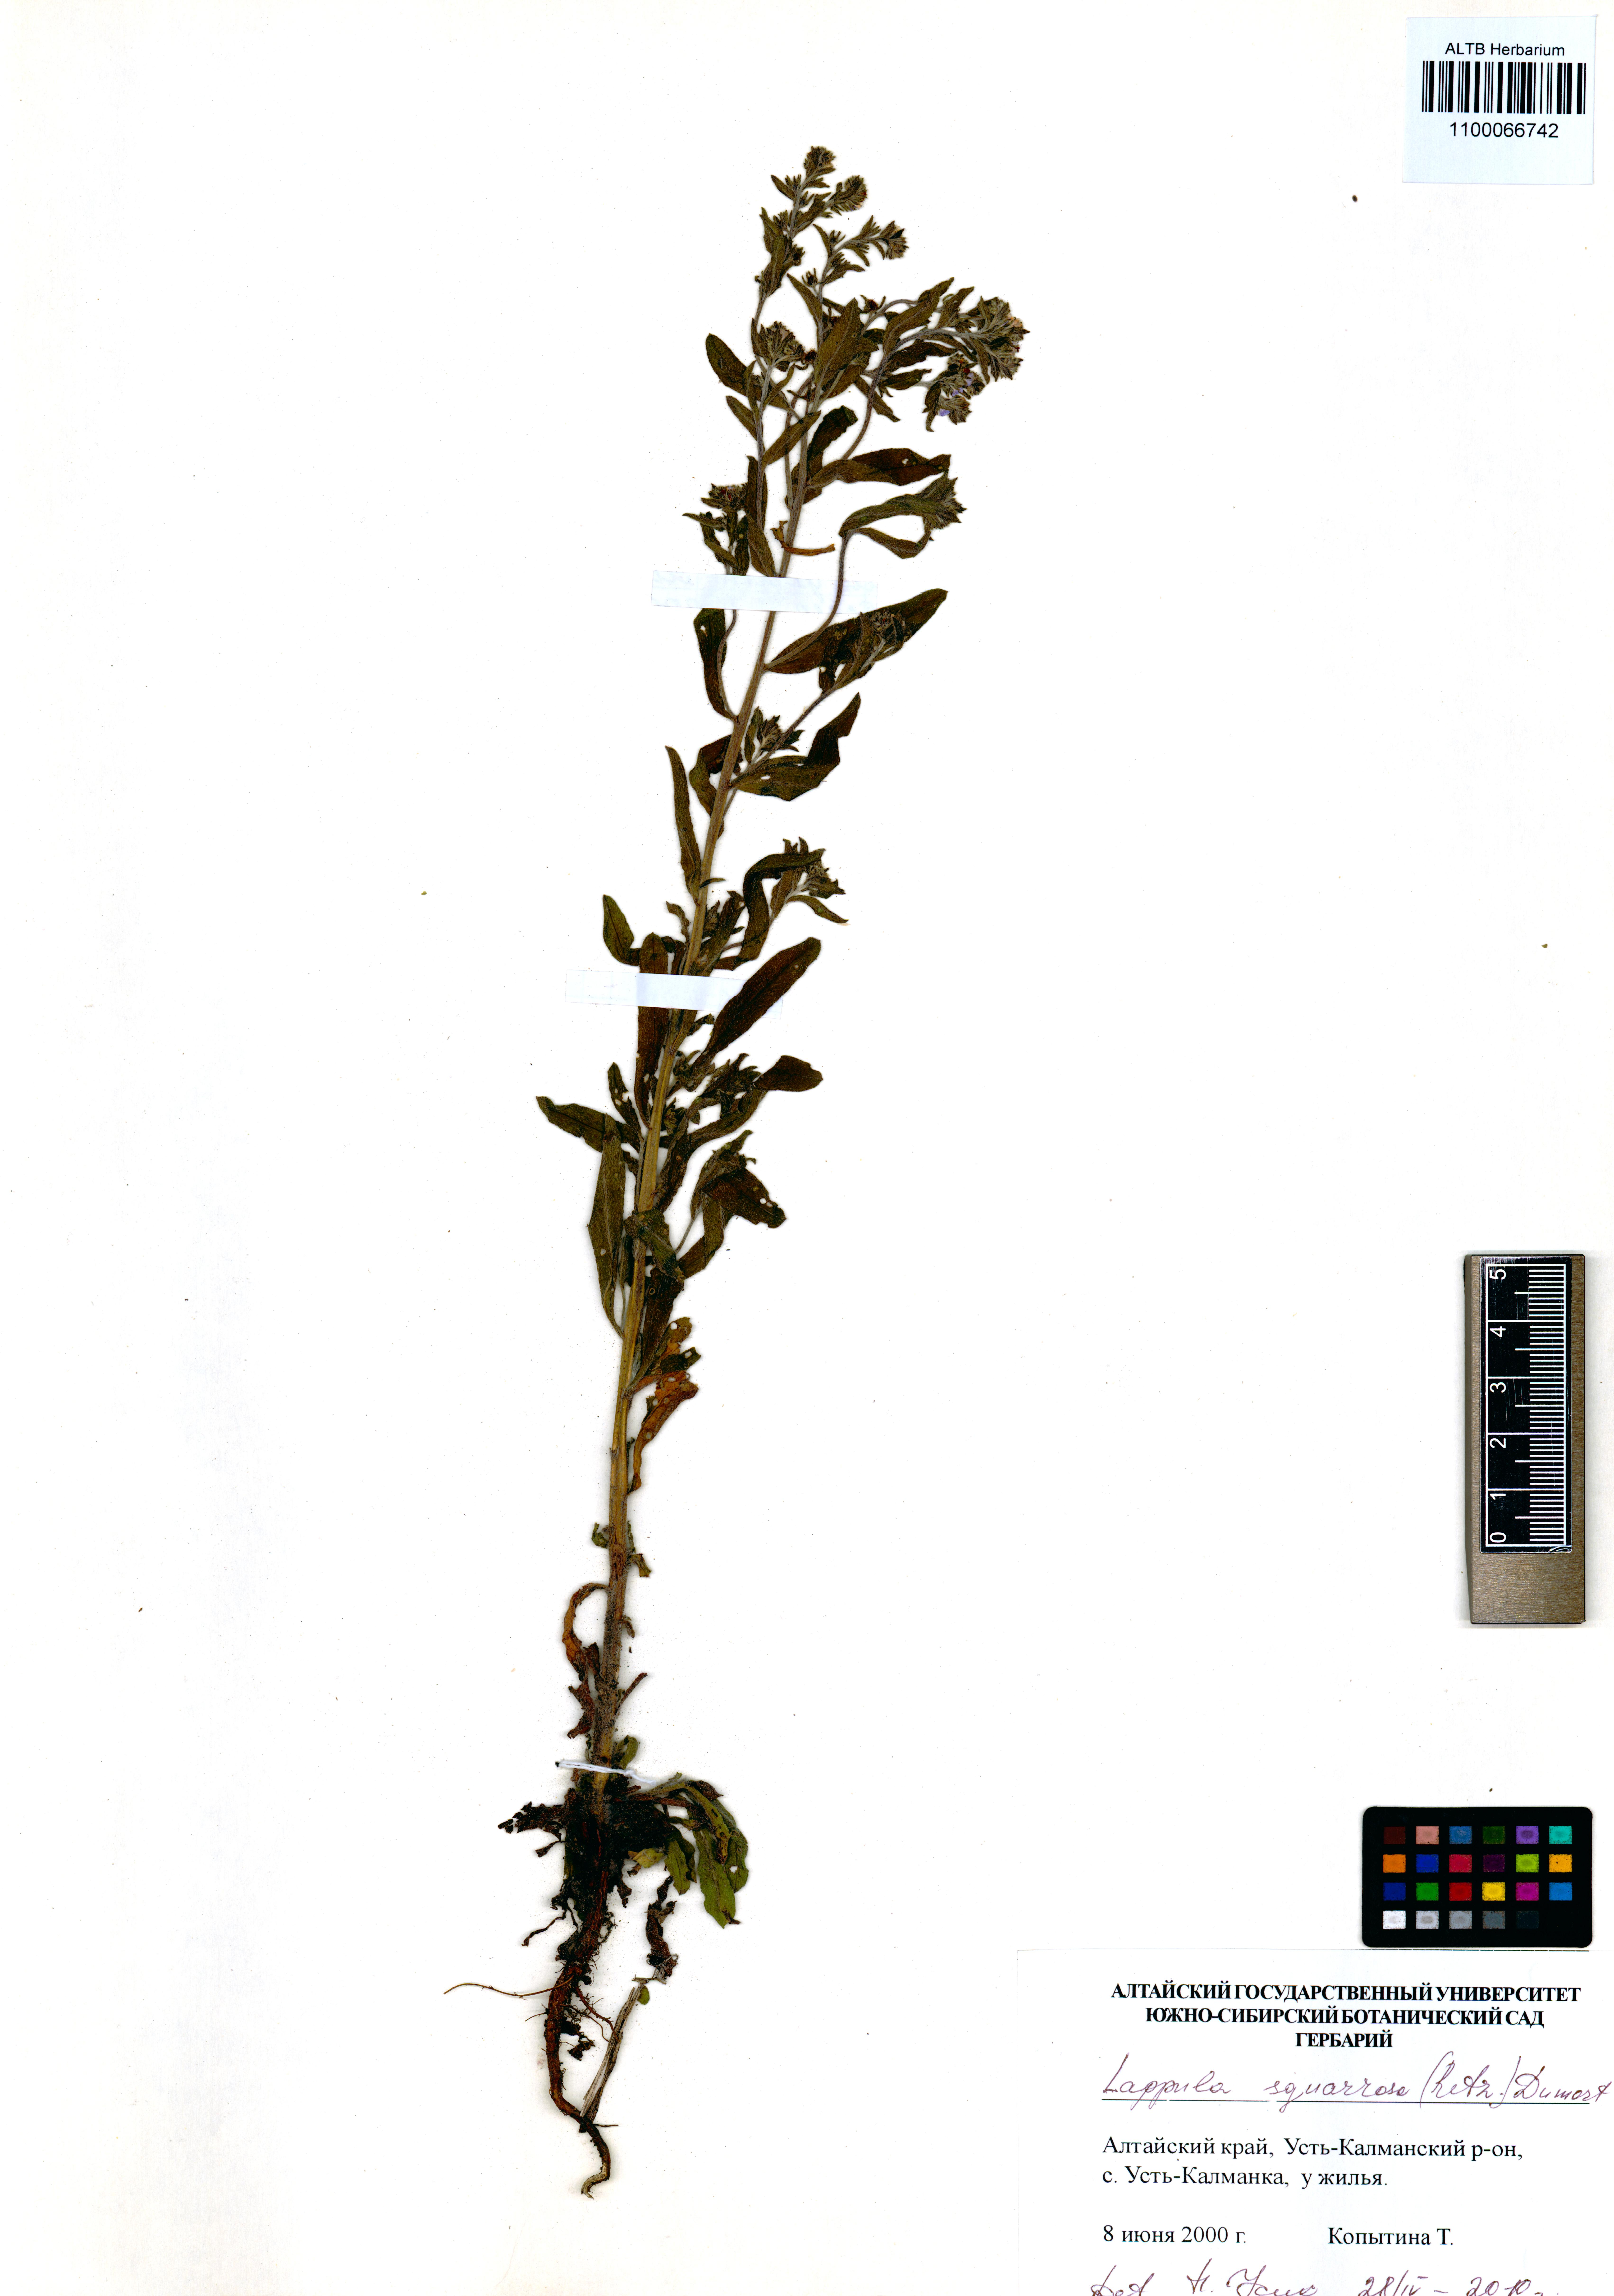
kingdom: Plantae
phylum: Tracheophyta
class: Magnoliopsida
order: Boraginales
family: Boraginaceae
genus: Lappula
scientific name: Lappula squarrosa
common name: European stickseed
